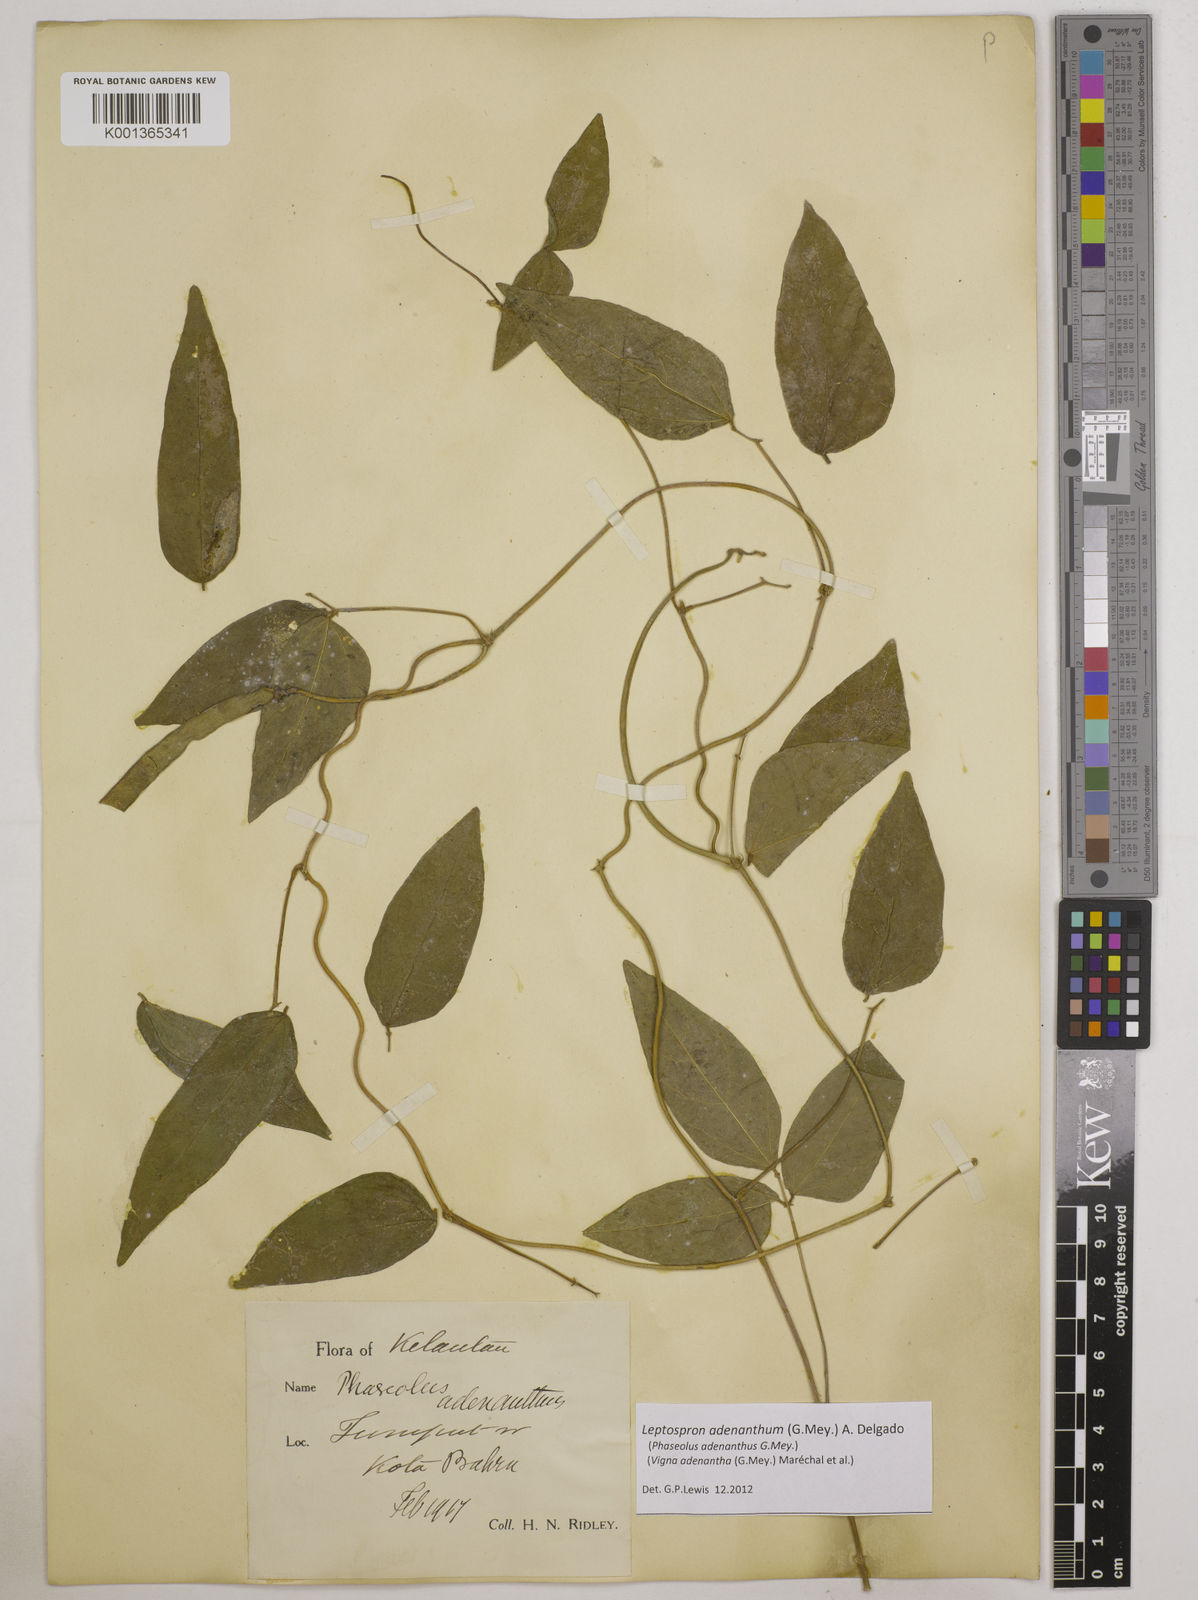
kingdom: Plantae
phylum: Tracheophyta
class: Magnoliopsida
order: Fabales
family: Fabaceae
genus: Leptospron
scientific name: Leptospron adenanthum
